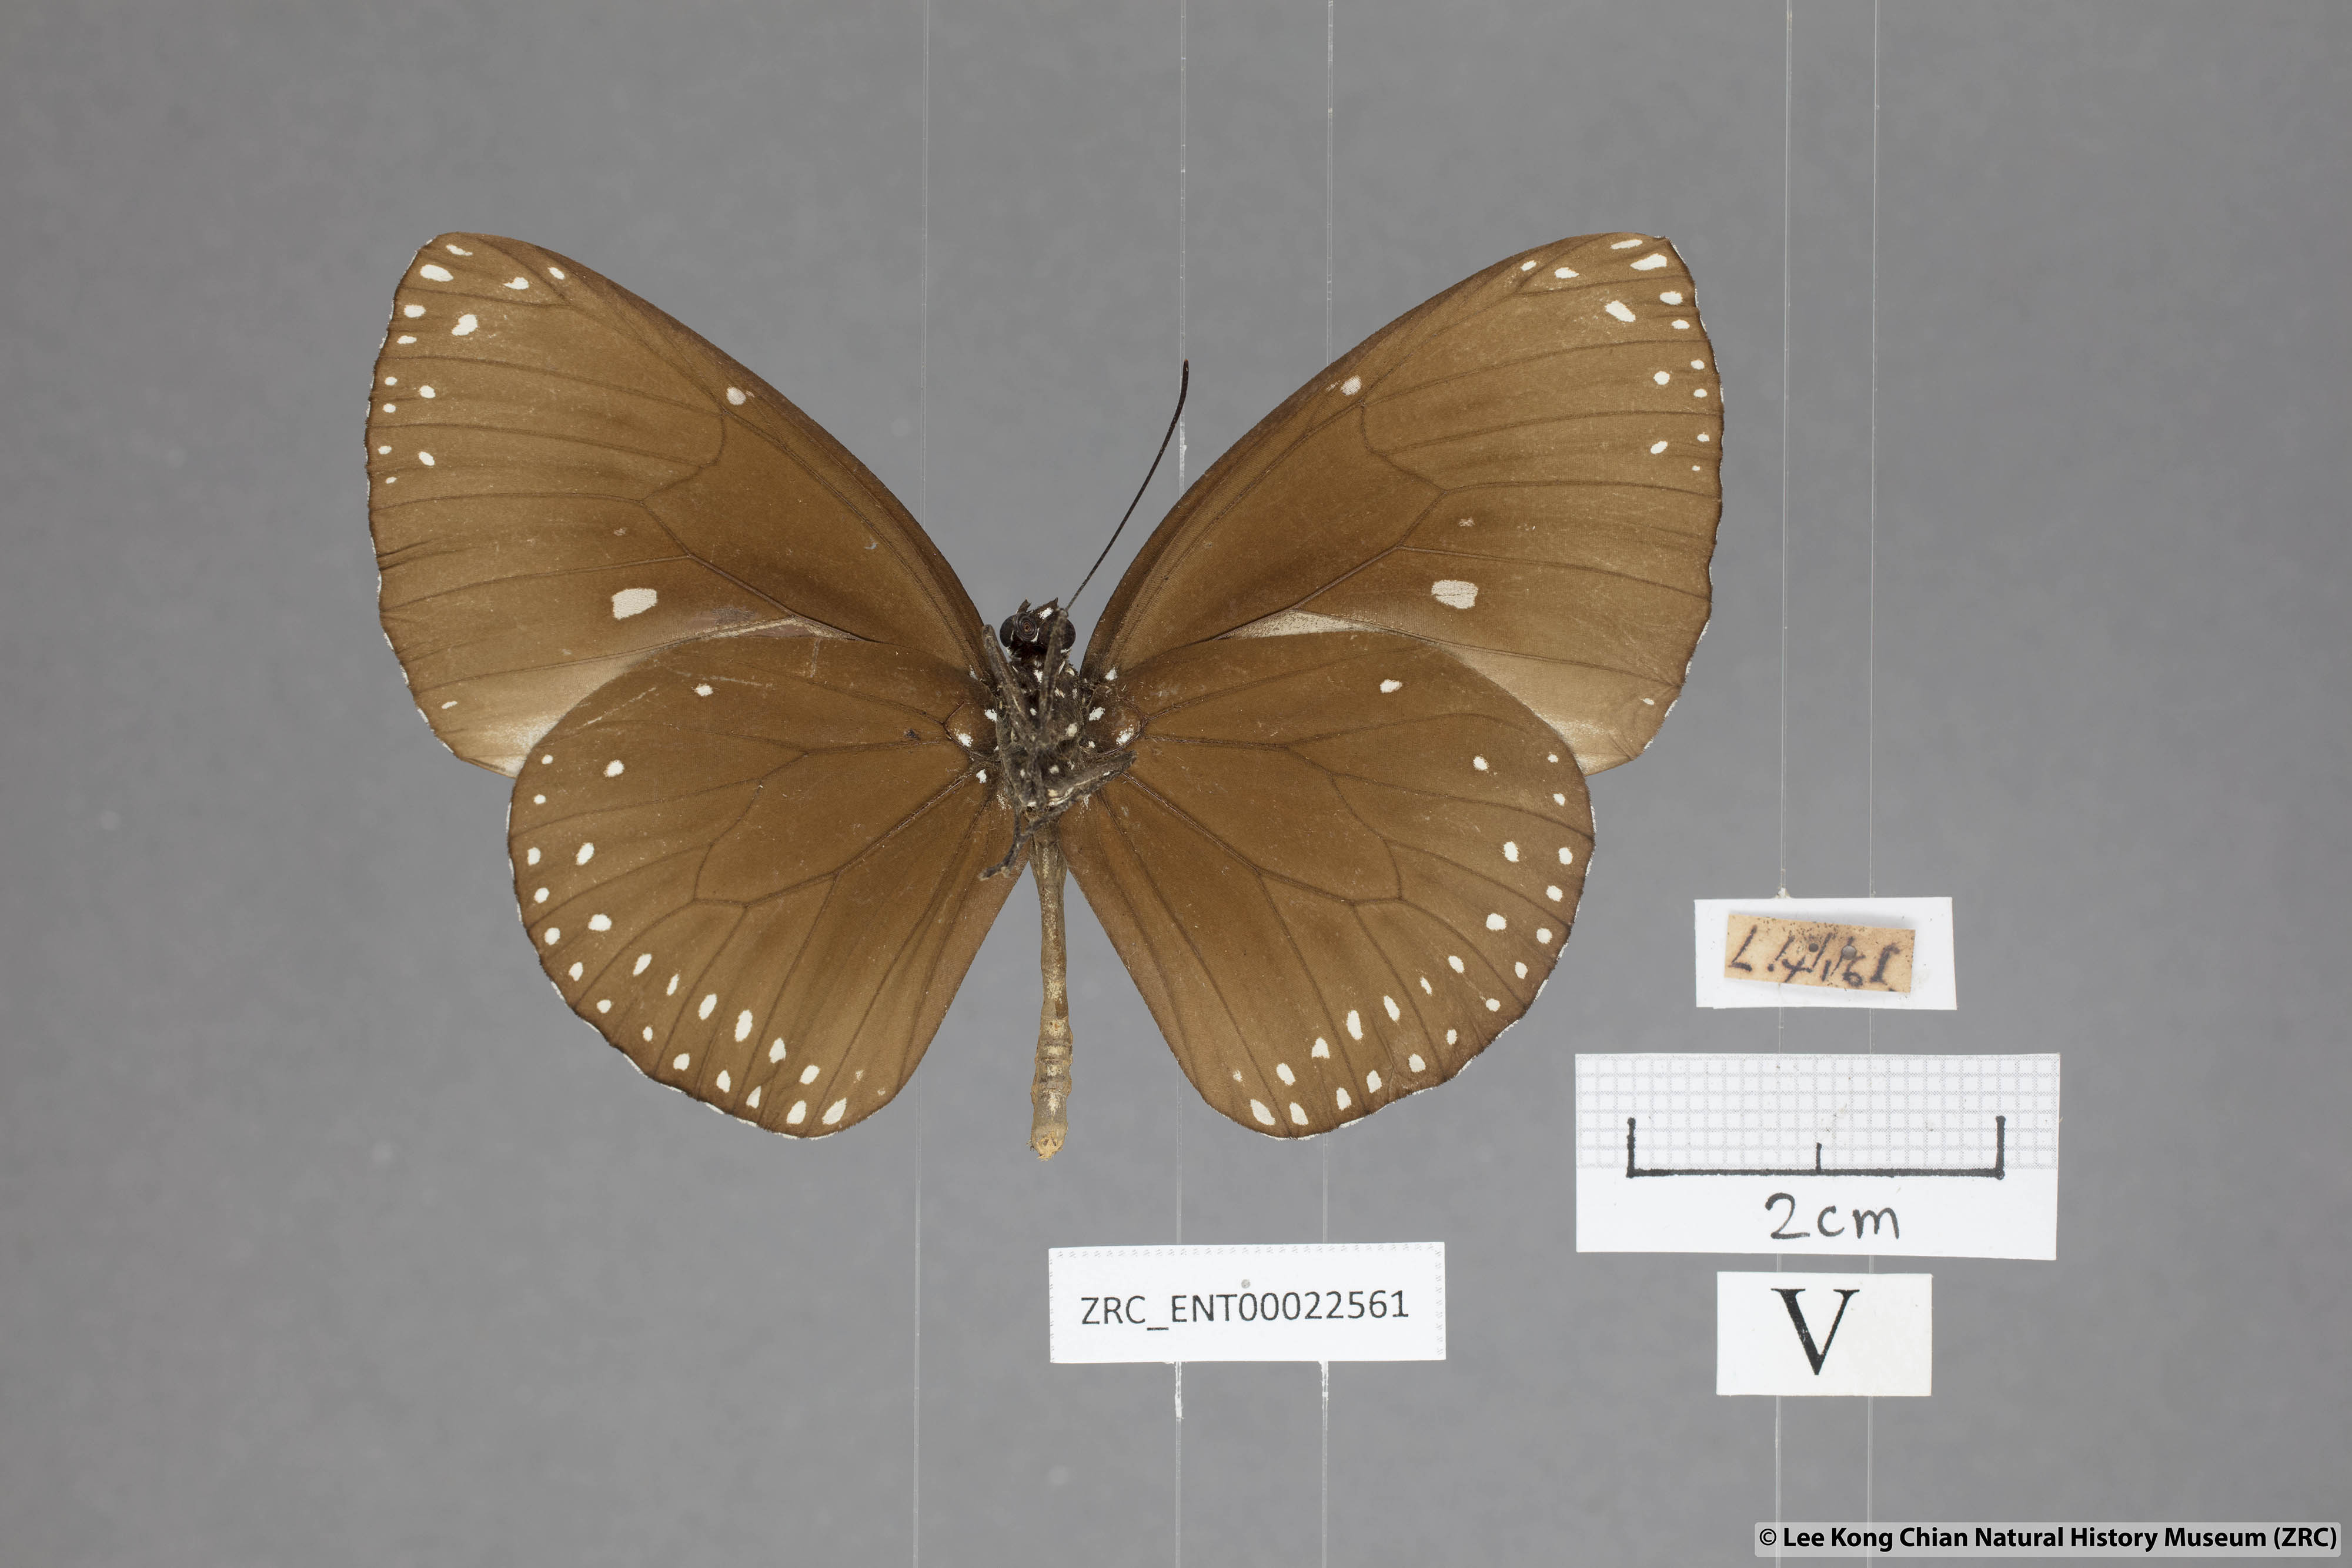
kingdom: Animalia
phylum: Arthropoda
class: Insecta
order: Lepidoptera
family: Nymphalidae
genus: Euploea
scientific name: Euploea klugii
